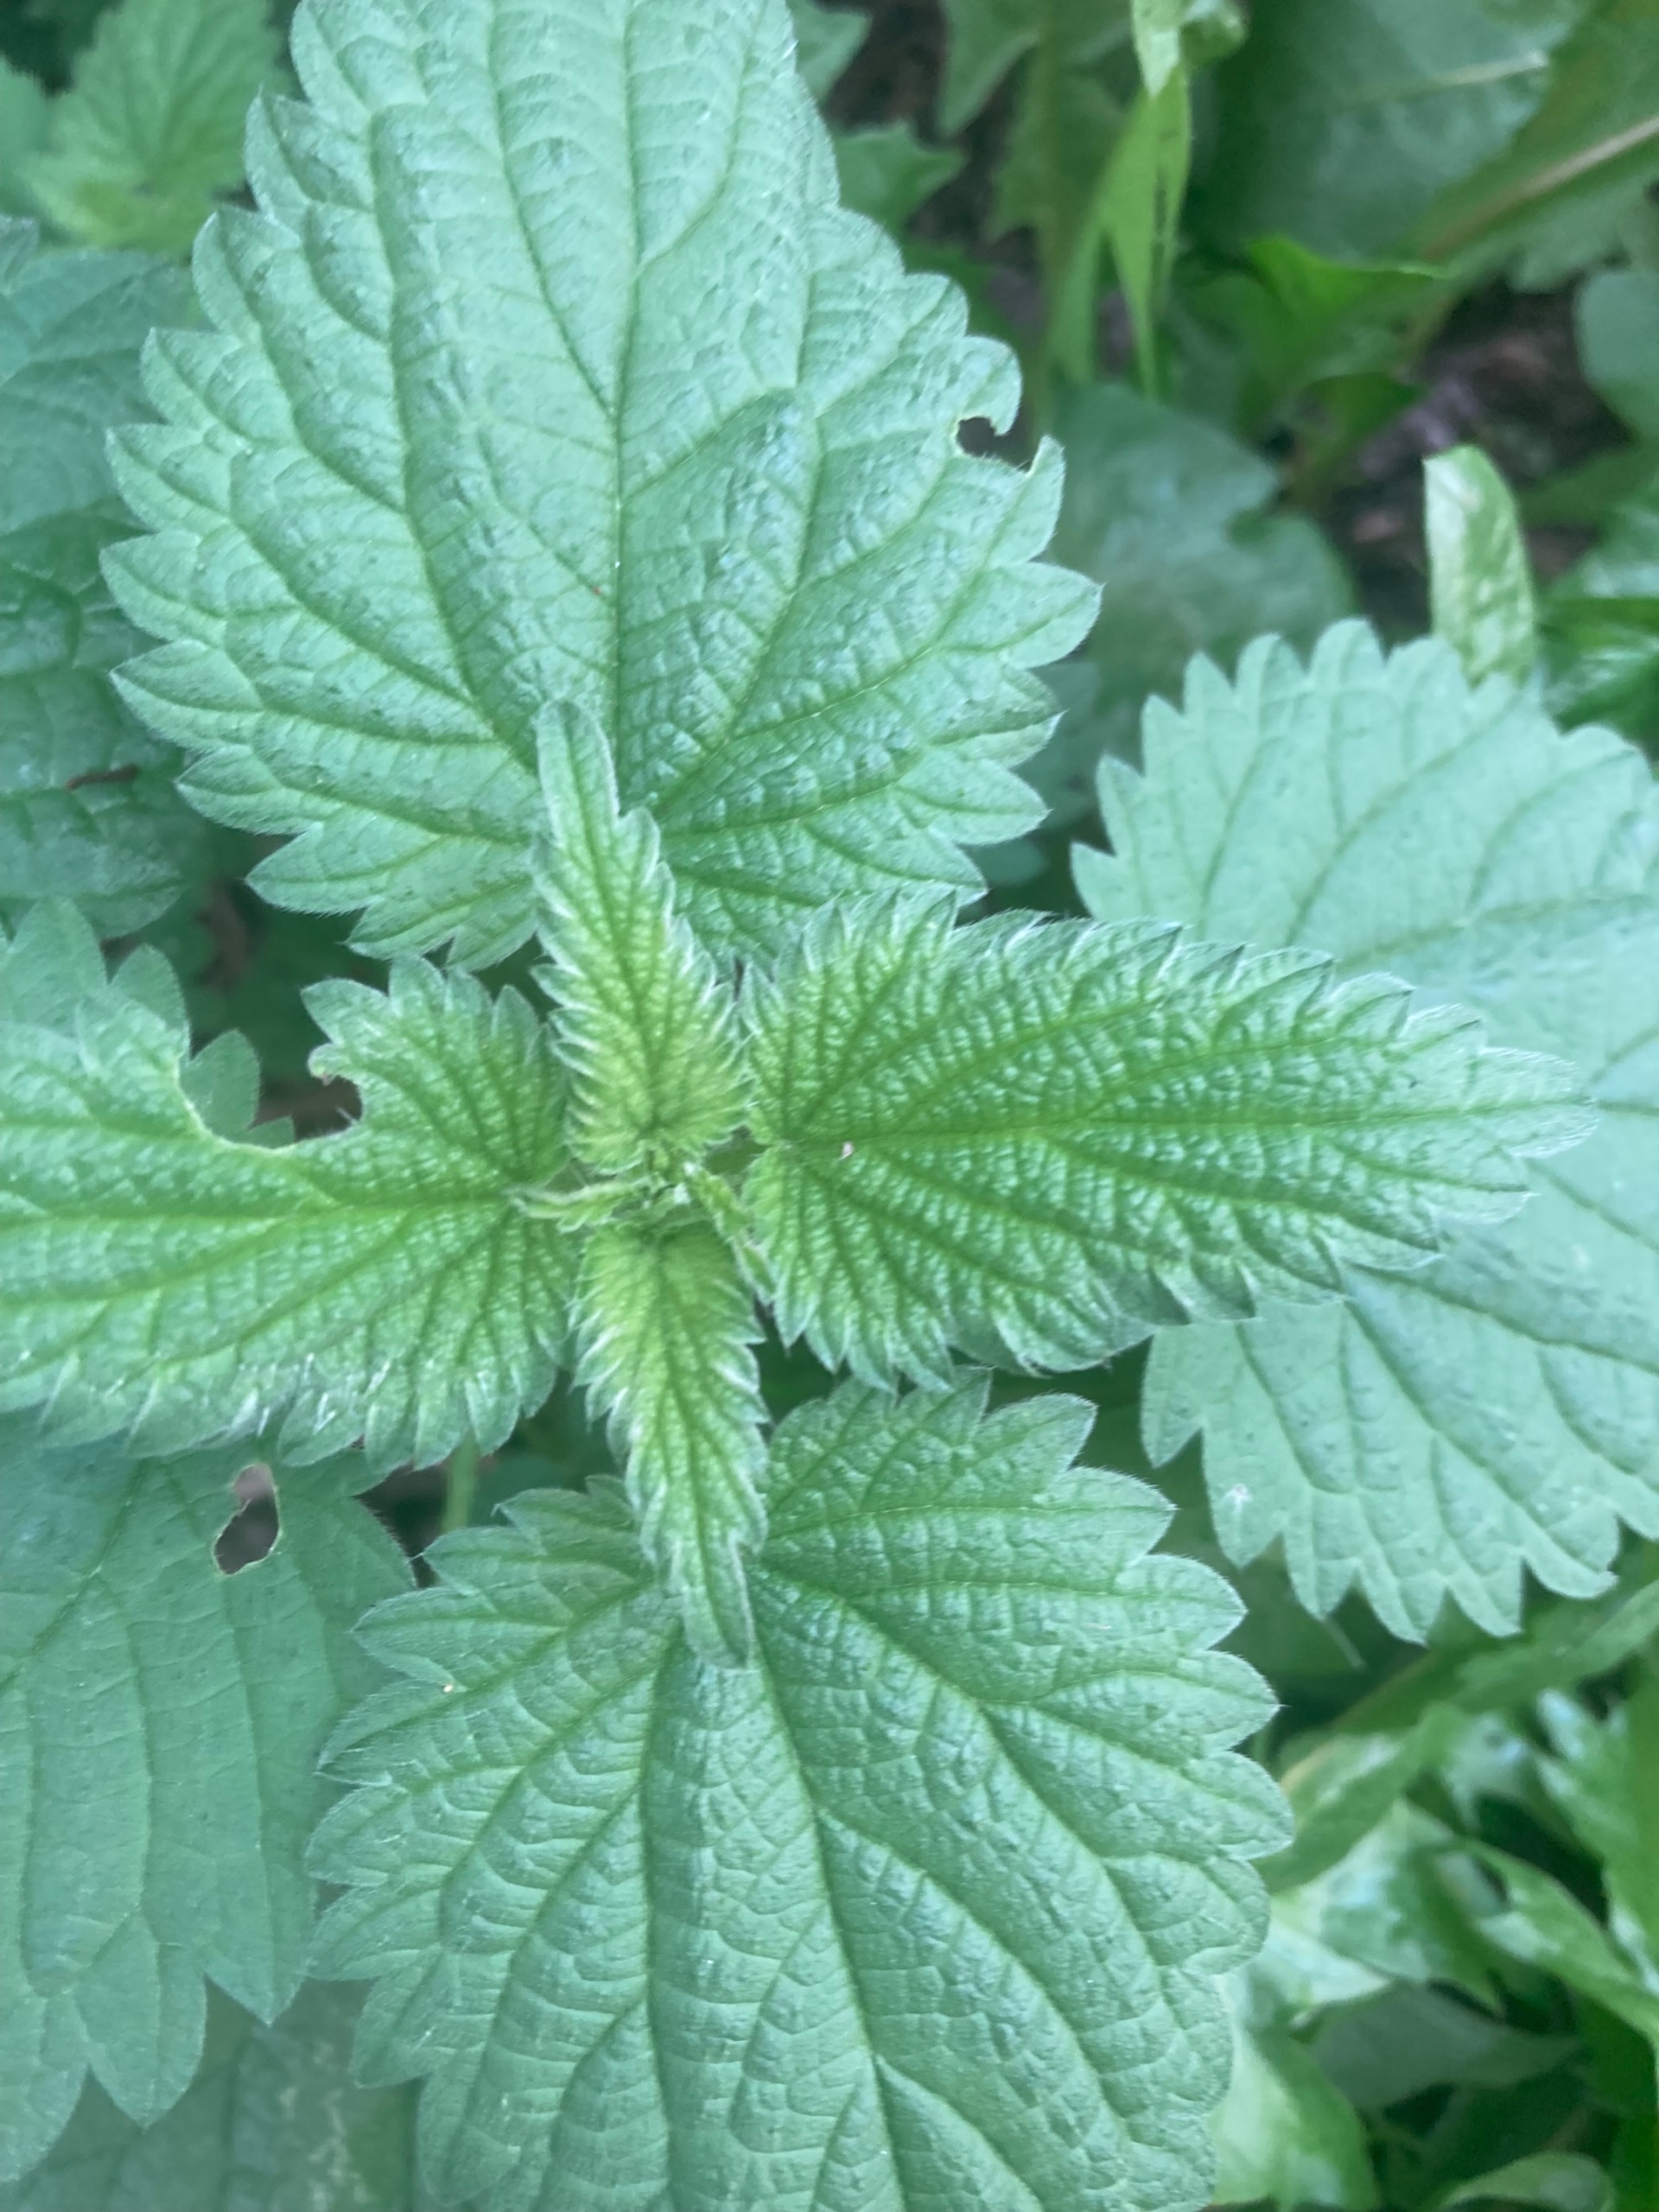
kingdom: Plantae
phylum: Tracheophyta
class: Magnoliopsida
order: Rosales
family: Urticaceae
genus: Urtica
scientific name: Urtica dioica
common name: Stor nælde
